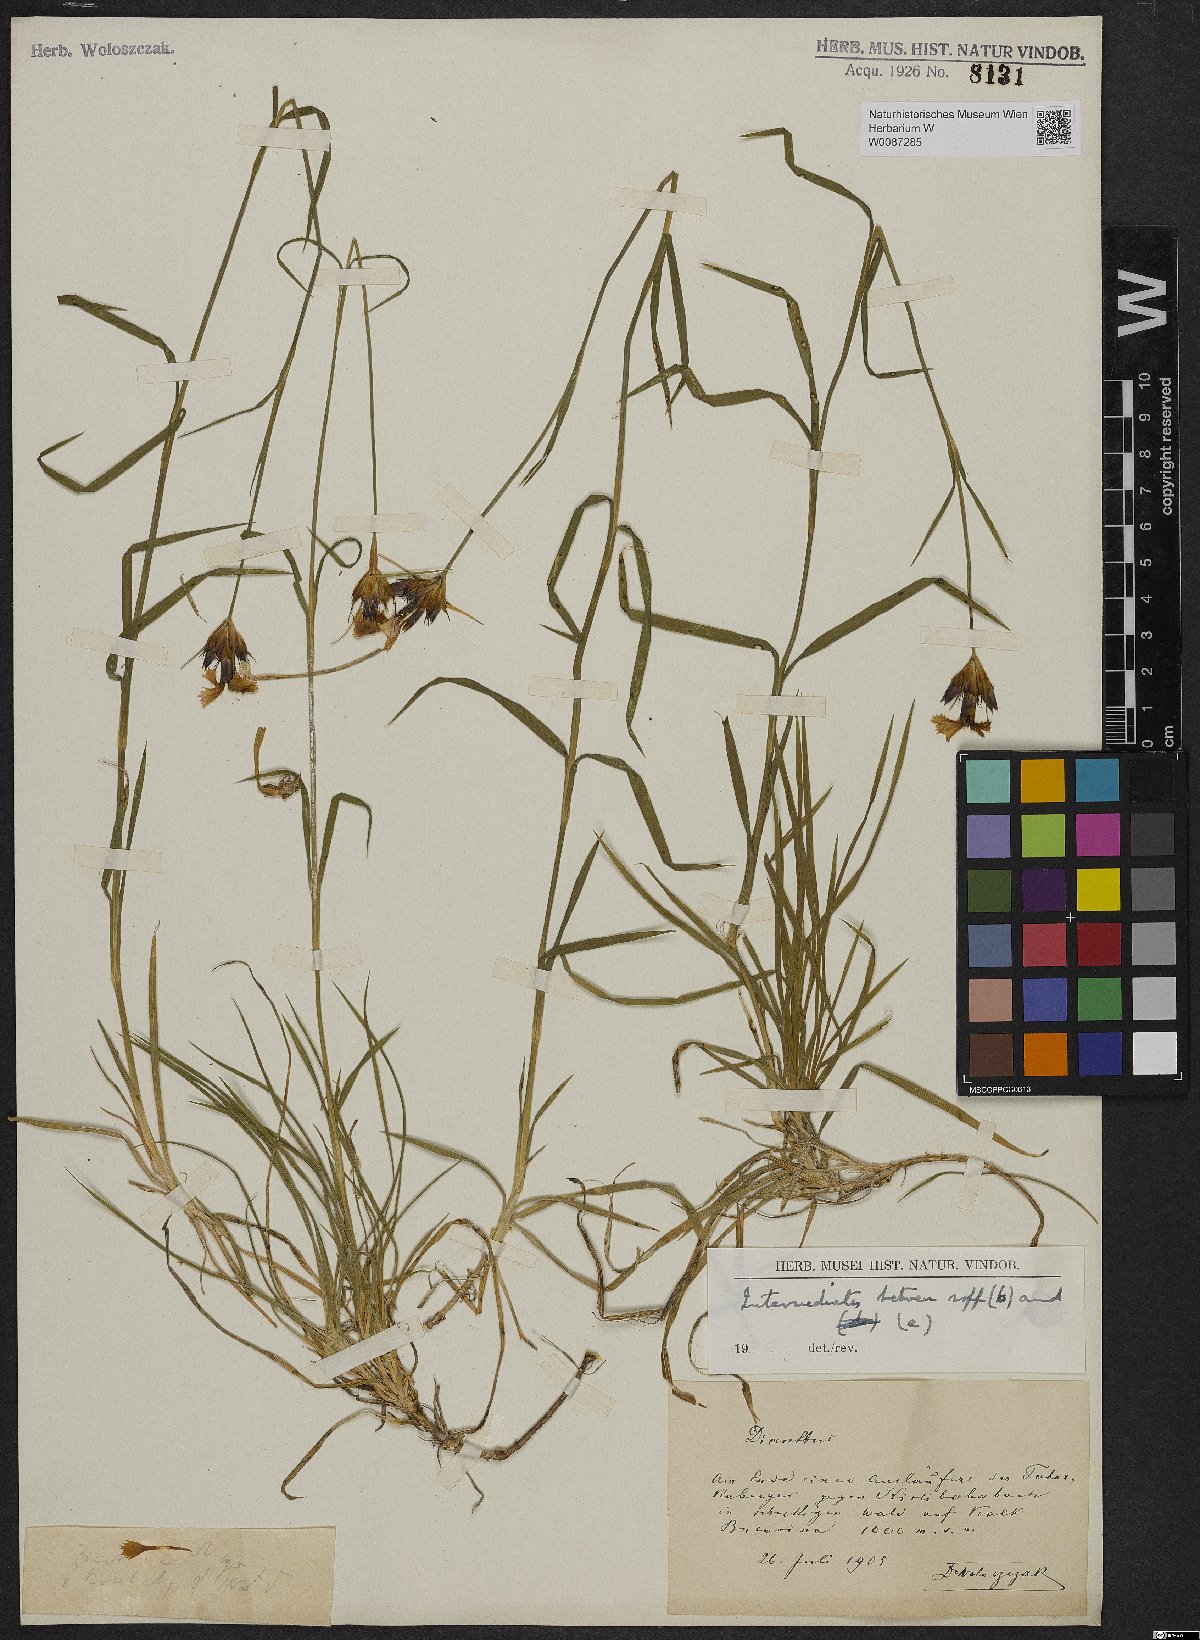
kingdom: Plantae
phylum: Tracheophyta
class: Magnoliopsida
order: Caryophyllales
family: Caryophyllaceae
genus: Dianthus
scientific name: Dianthus
